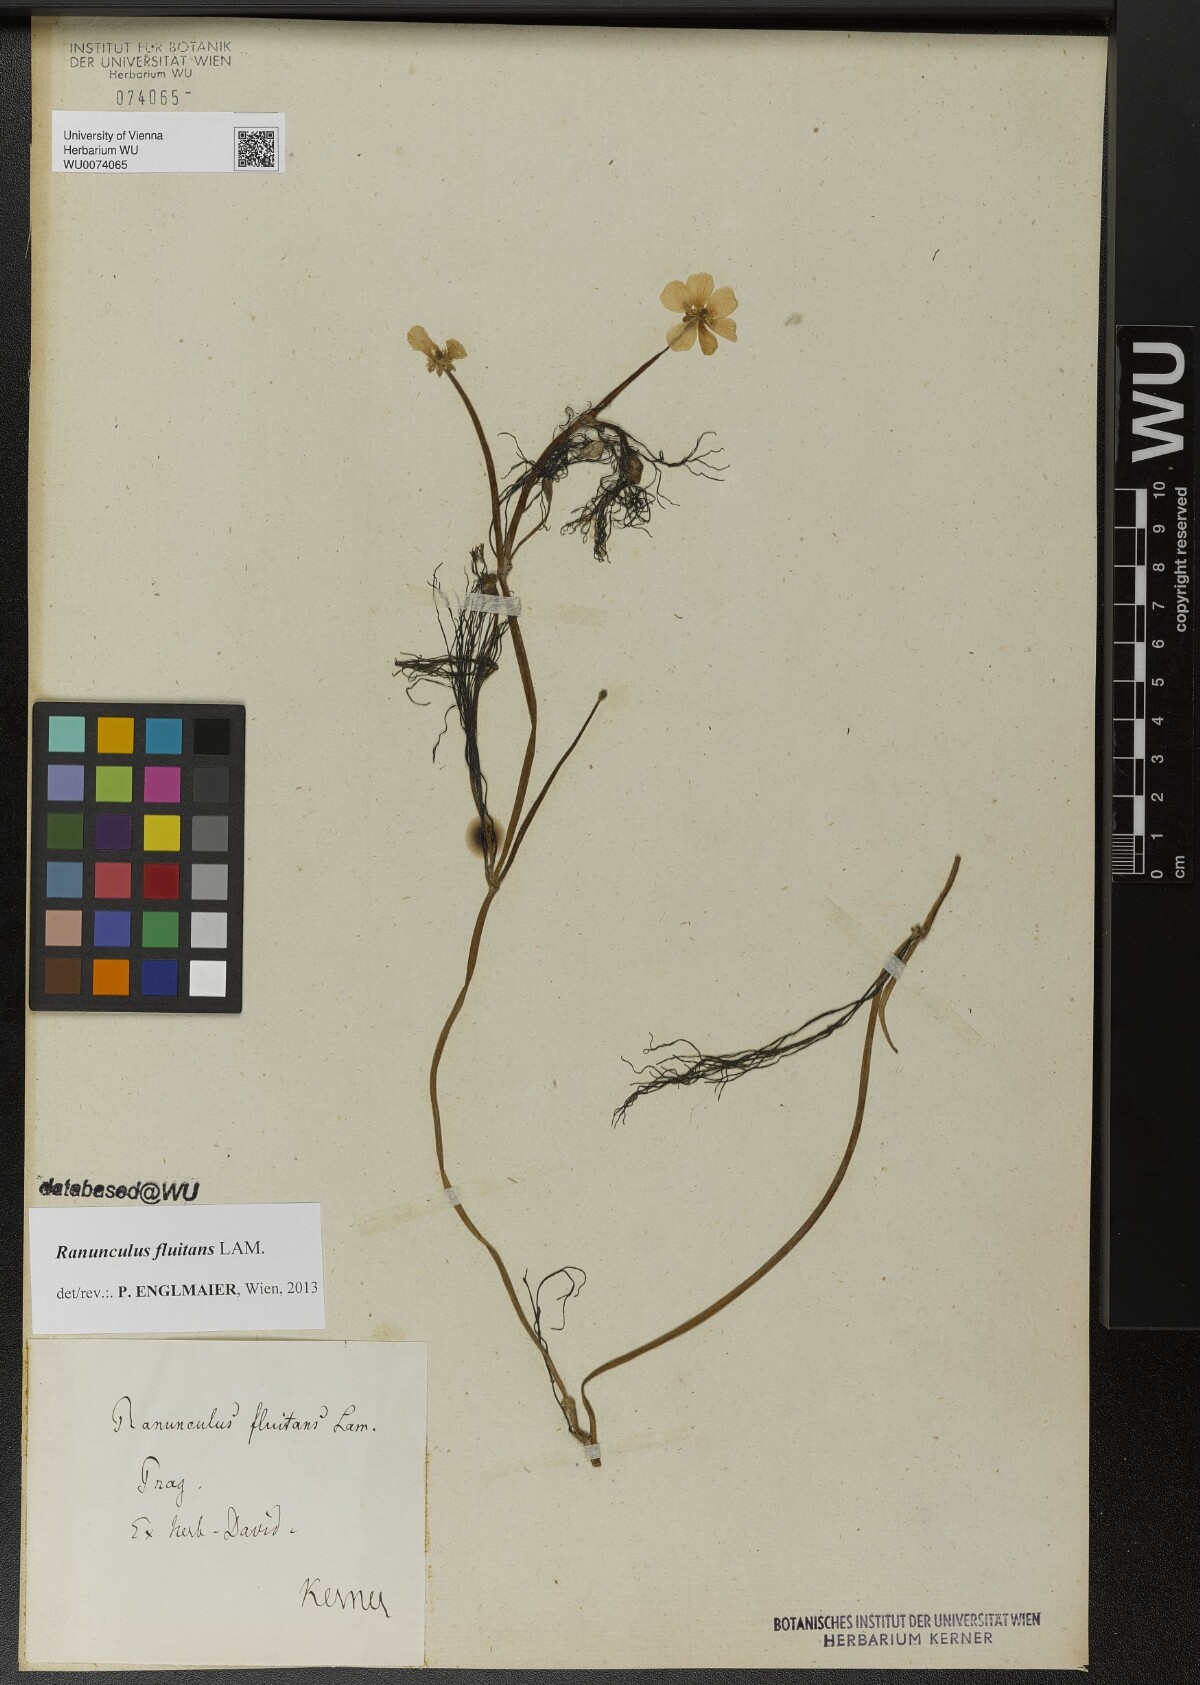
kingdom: Plantae
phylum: Tracheophyta
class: Magnoliopsida
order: Ranunculales
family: Ranunculaceae
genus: Ranunculus
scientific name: Ranunculus fluitans
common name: River water-crowfoot
